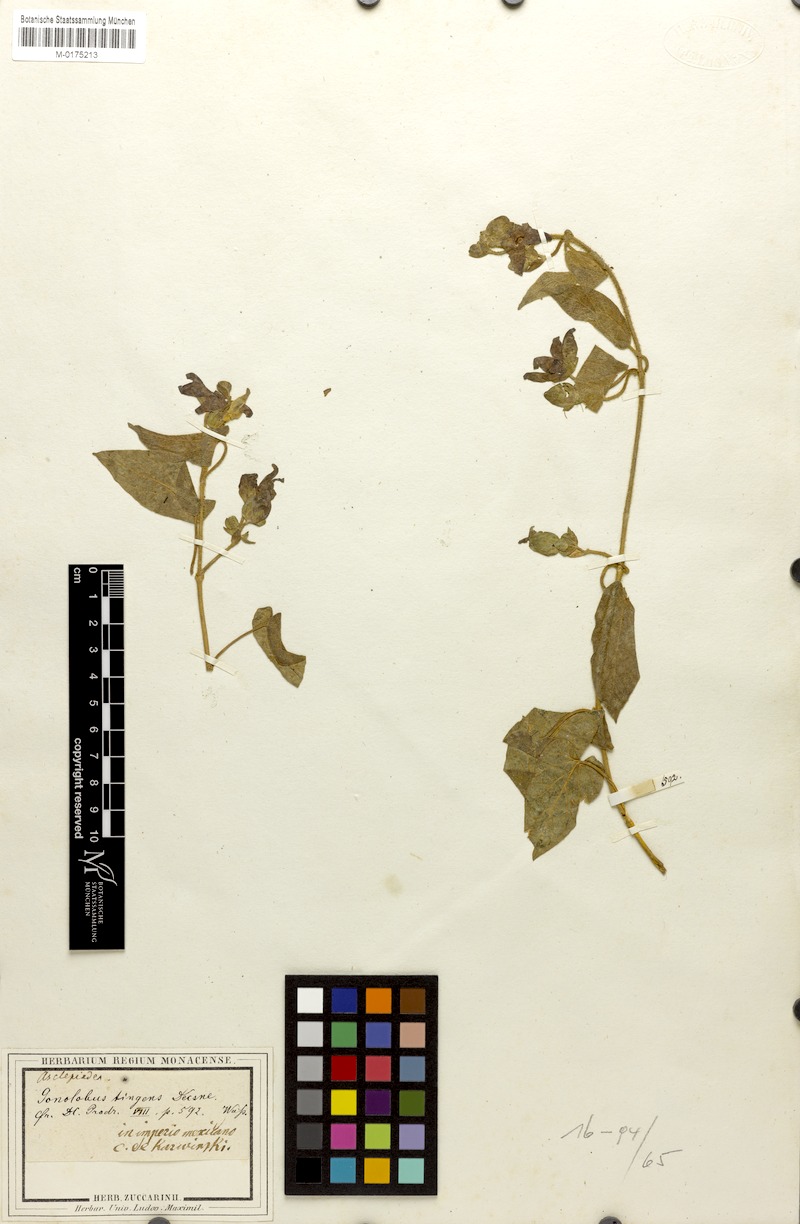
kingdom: Plantae
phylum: Tracheophyta
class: Magnoliopsida
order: Gentianales
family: Apocynaceae
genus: Gonolobus
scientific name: Gonolobus tingens
